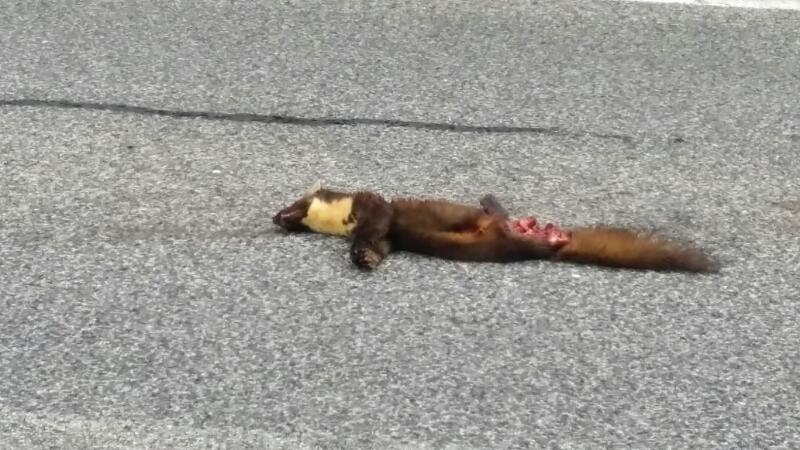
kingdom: Animalia
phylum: Chordata
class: Mammalia
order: Carnivora
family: Mustelidae
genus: Martes
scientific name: Martes martes
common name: European pine marten
